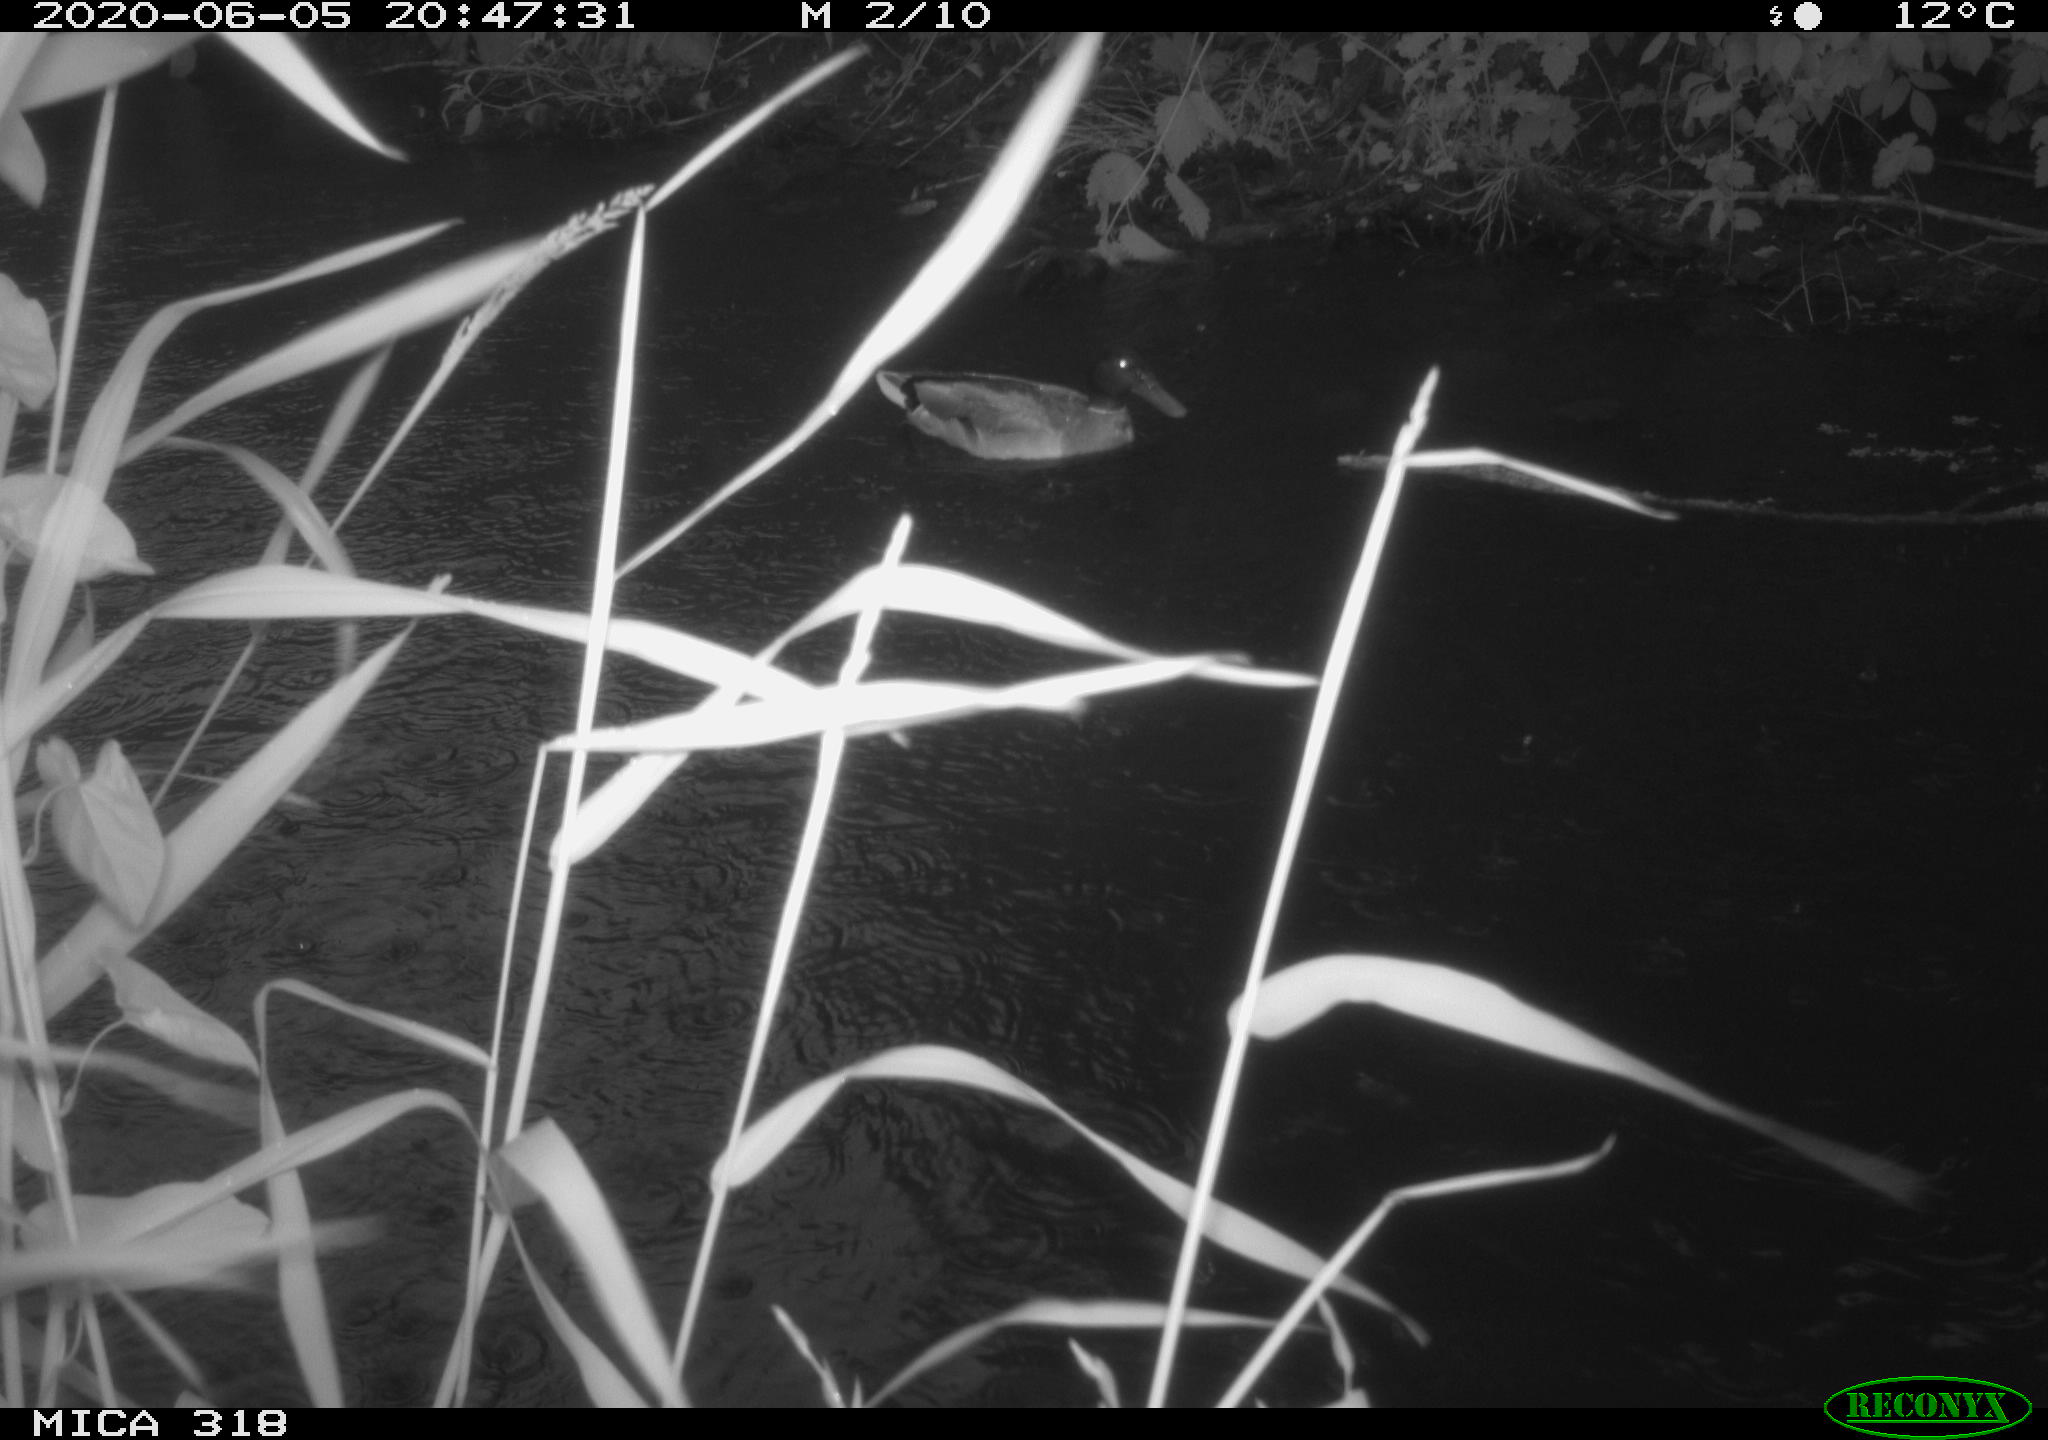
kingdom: Animalia
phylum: Chordata
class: Aves
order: Anseriformes
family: Anatidae
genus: Anas
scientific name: Anas platyrhynchos
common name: Mallard
